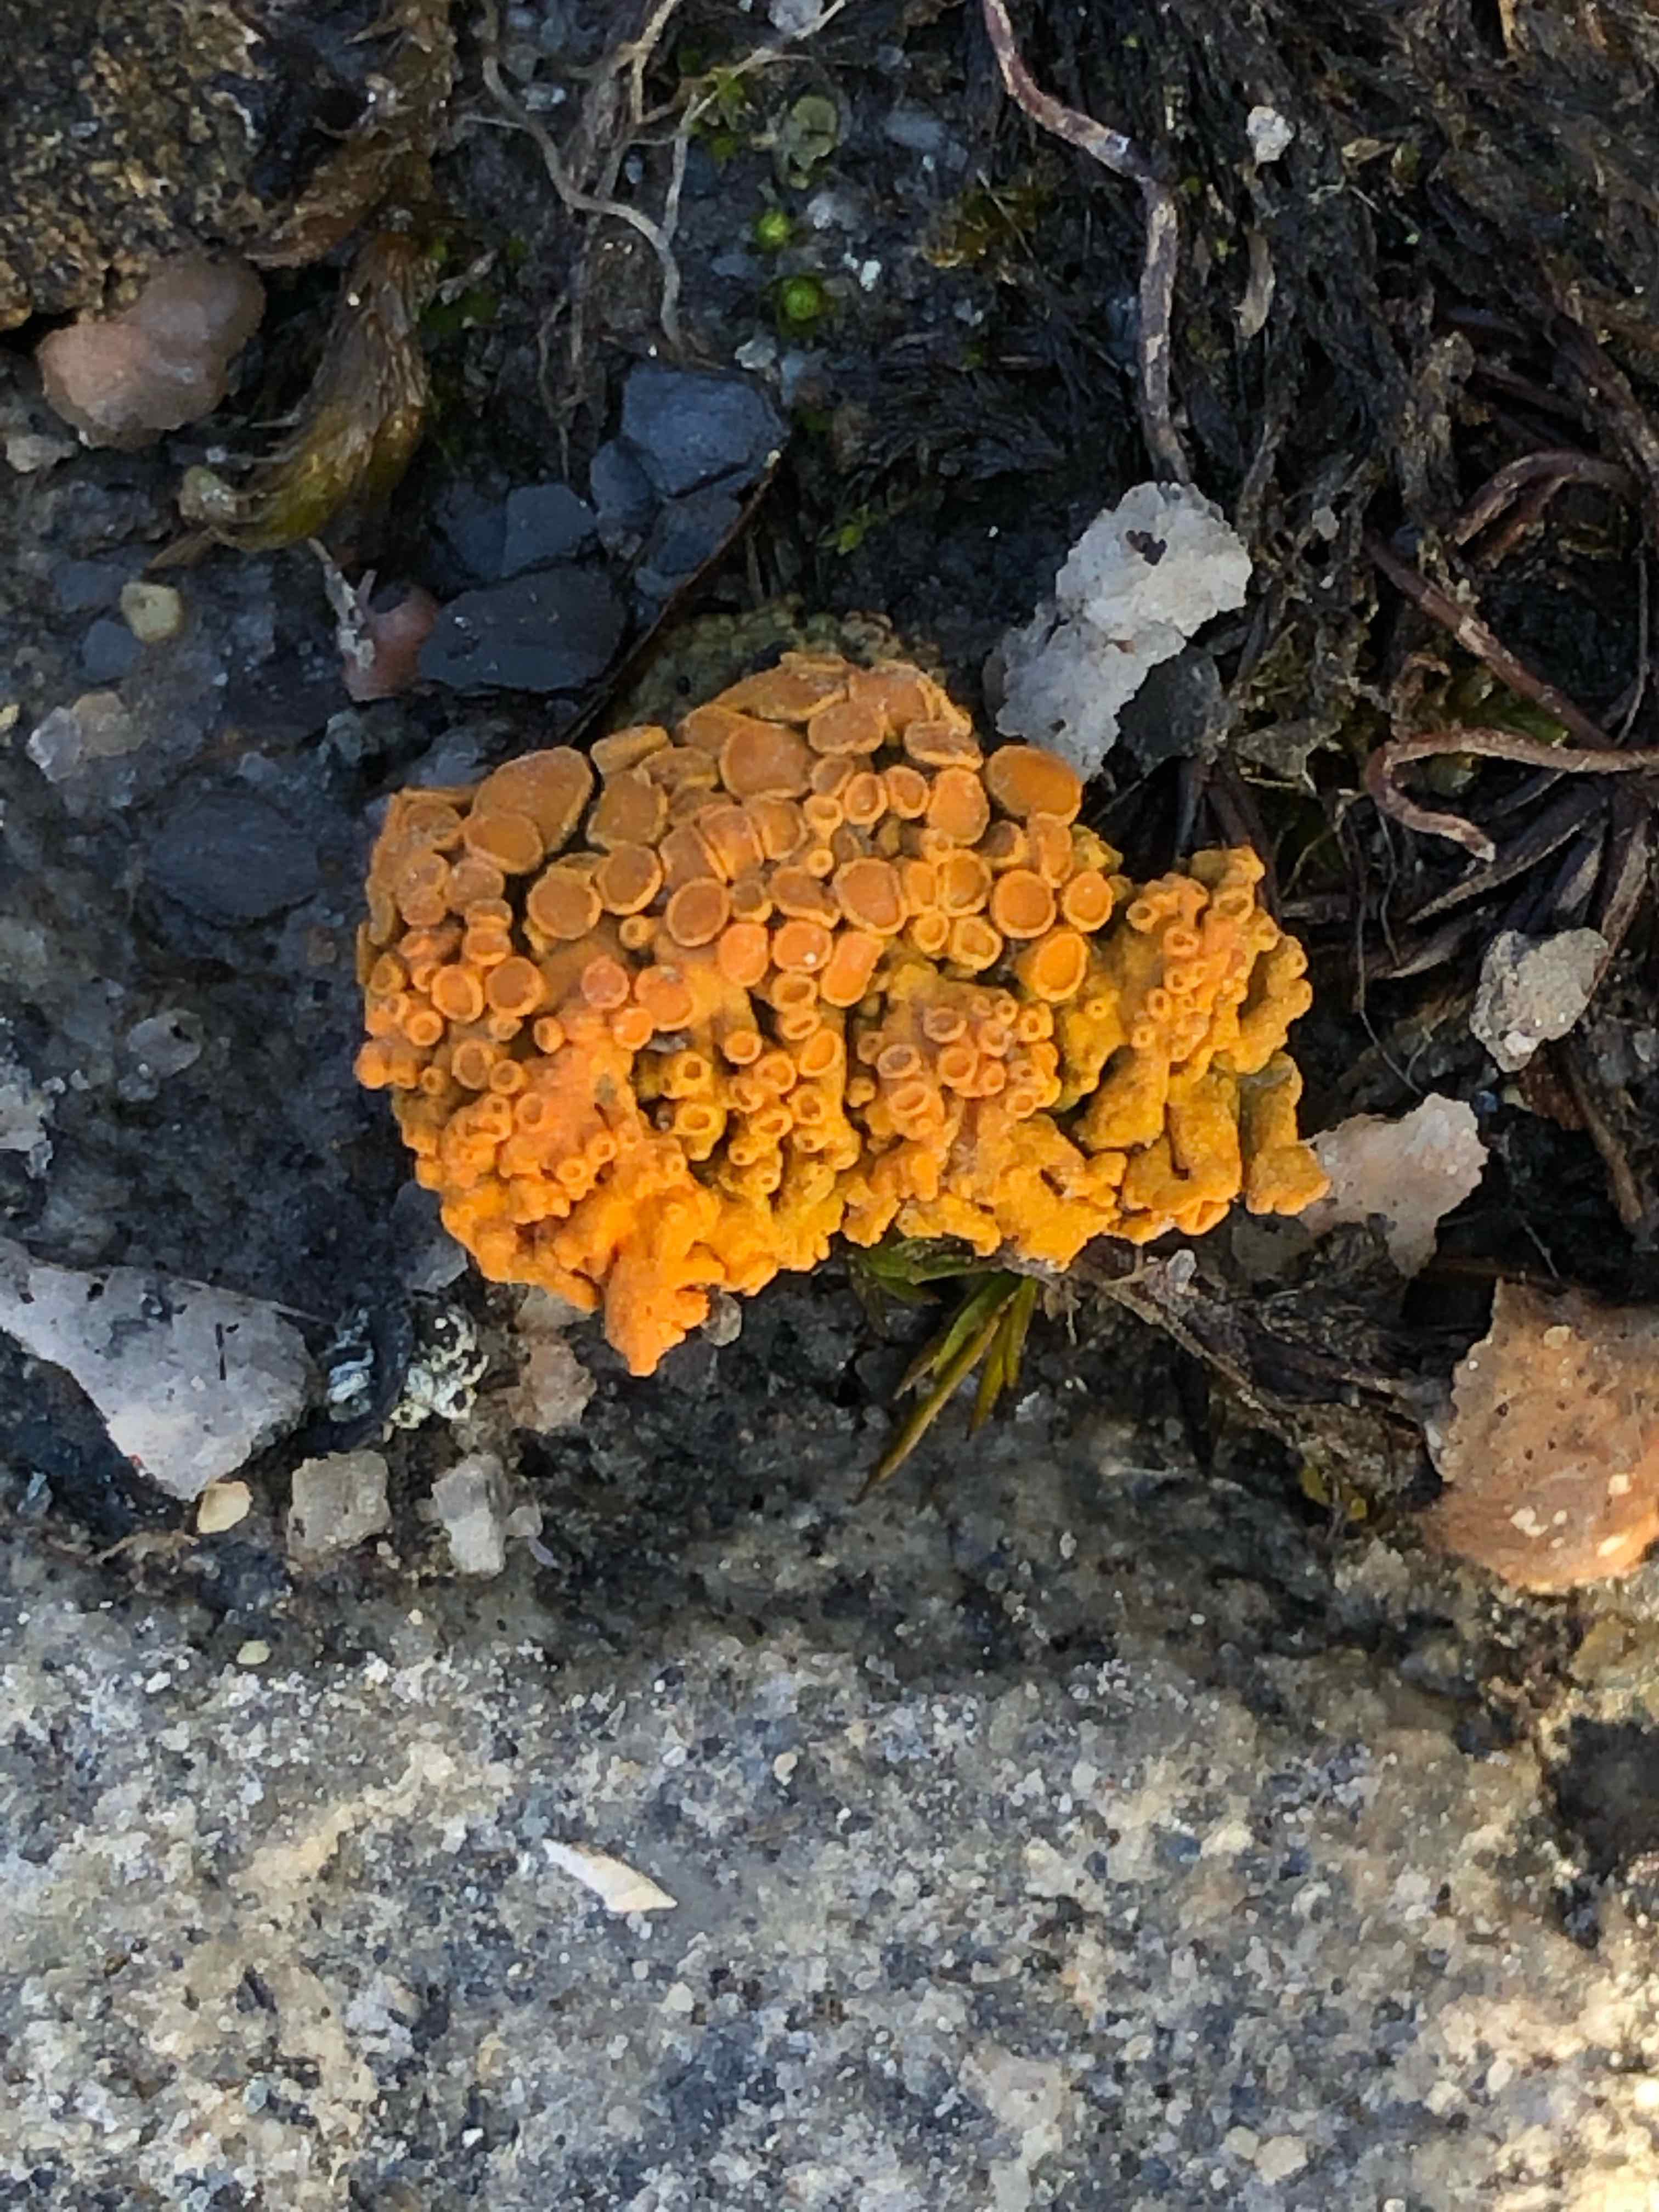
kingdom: Fungi
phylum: Ascomycota
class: Lecanoromycetes
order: Teloschistales
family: Teloschistaceae
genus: Xanthoria
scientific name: Xanthoria elegans
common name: fjeld-væggelav
